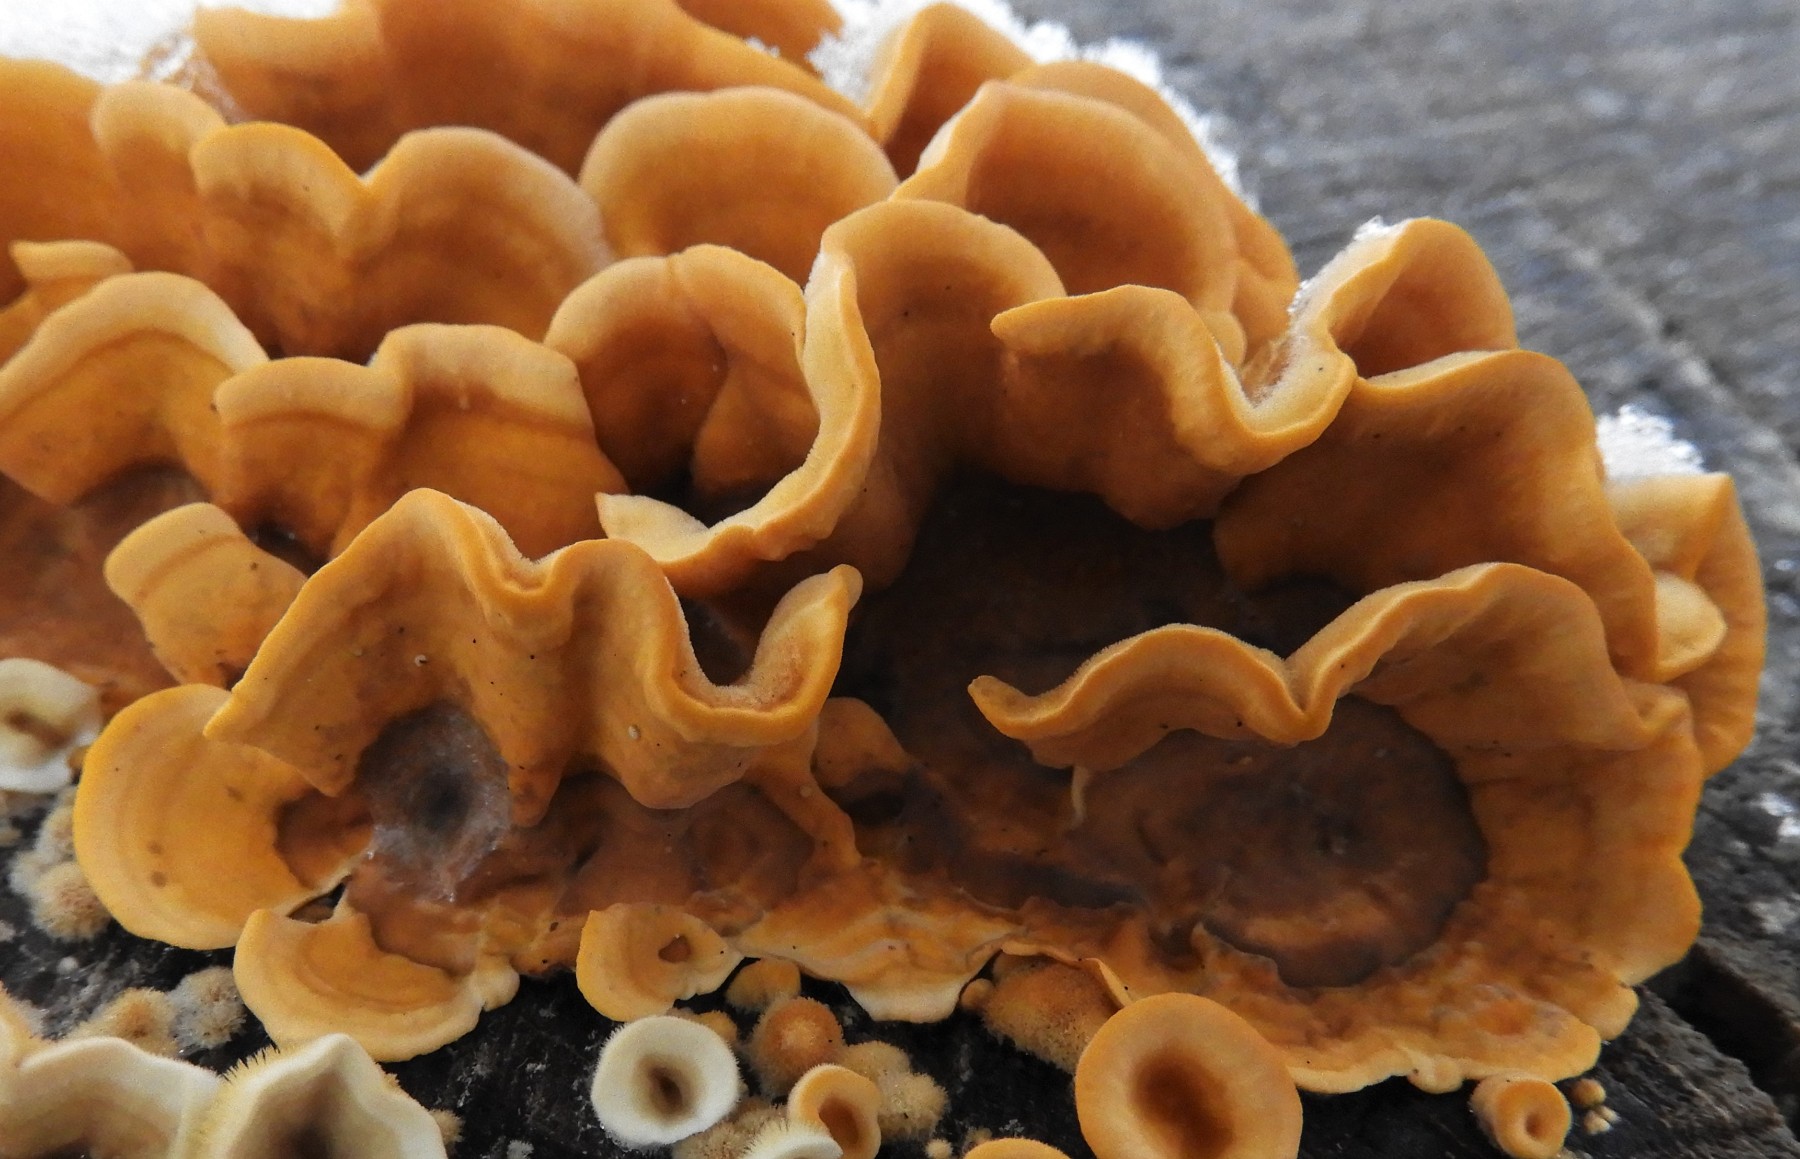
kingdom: Fungi
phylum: Basidiomycota
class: Agaricomycetes
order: Russulales
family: Stereaceae
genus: Stereum
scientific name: Stereum hirsutum
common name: håret lædersvamp
